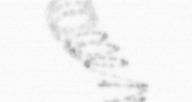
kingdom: Chromista
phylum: Ochrophyta
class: Bacillariophyceae
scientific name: Bacillariophyceae
